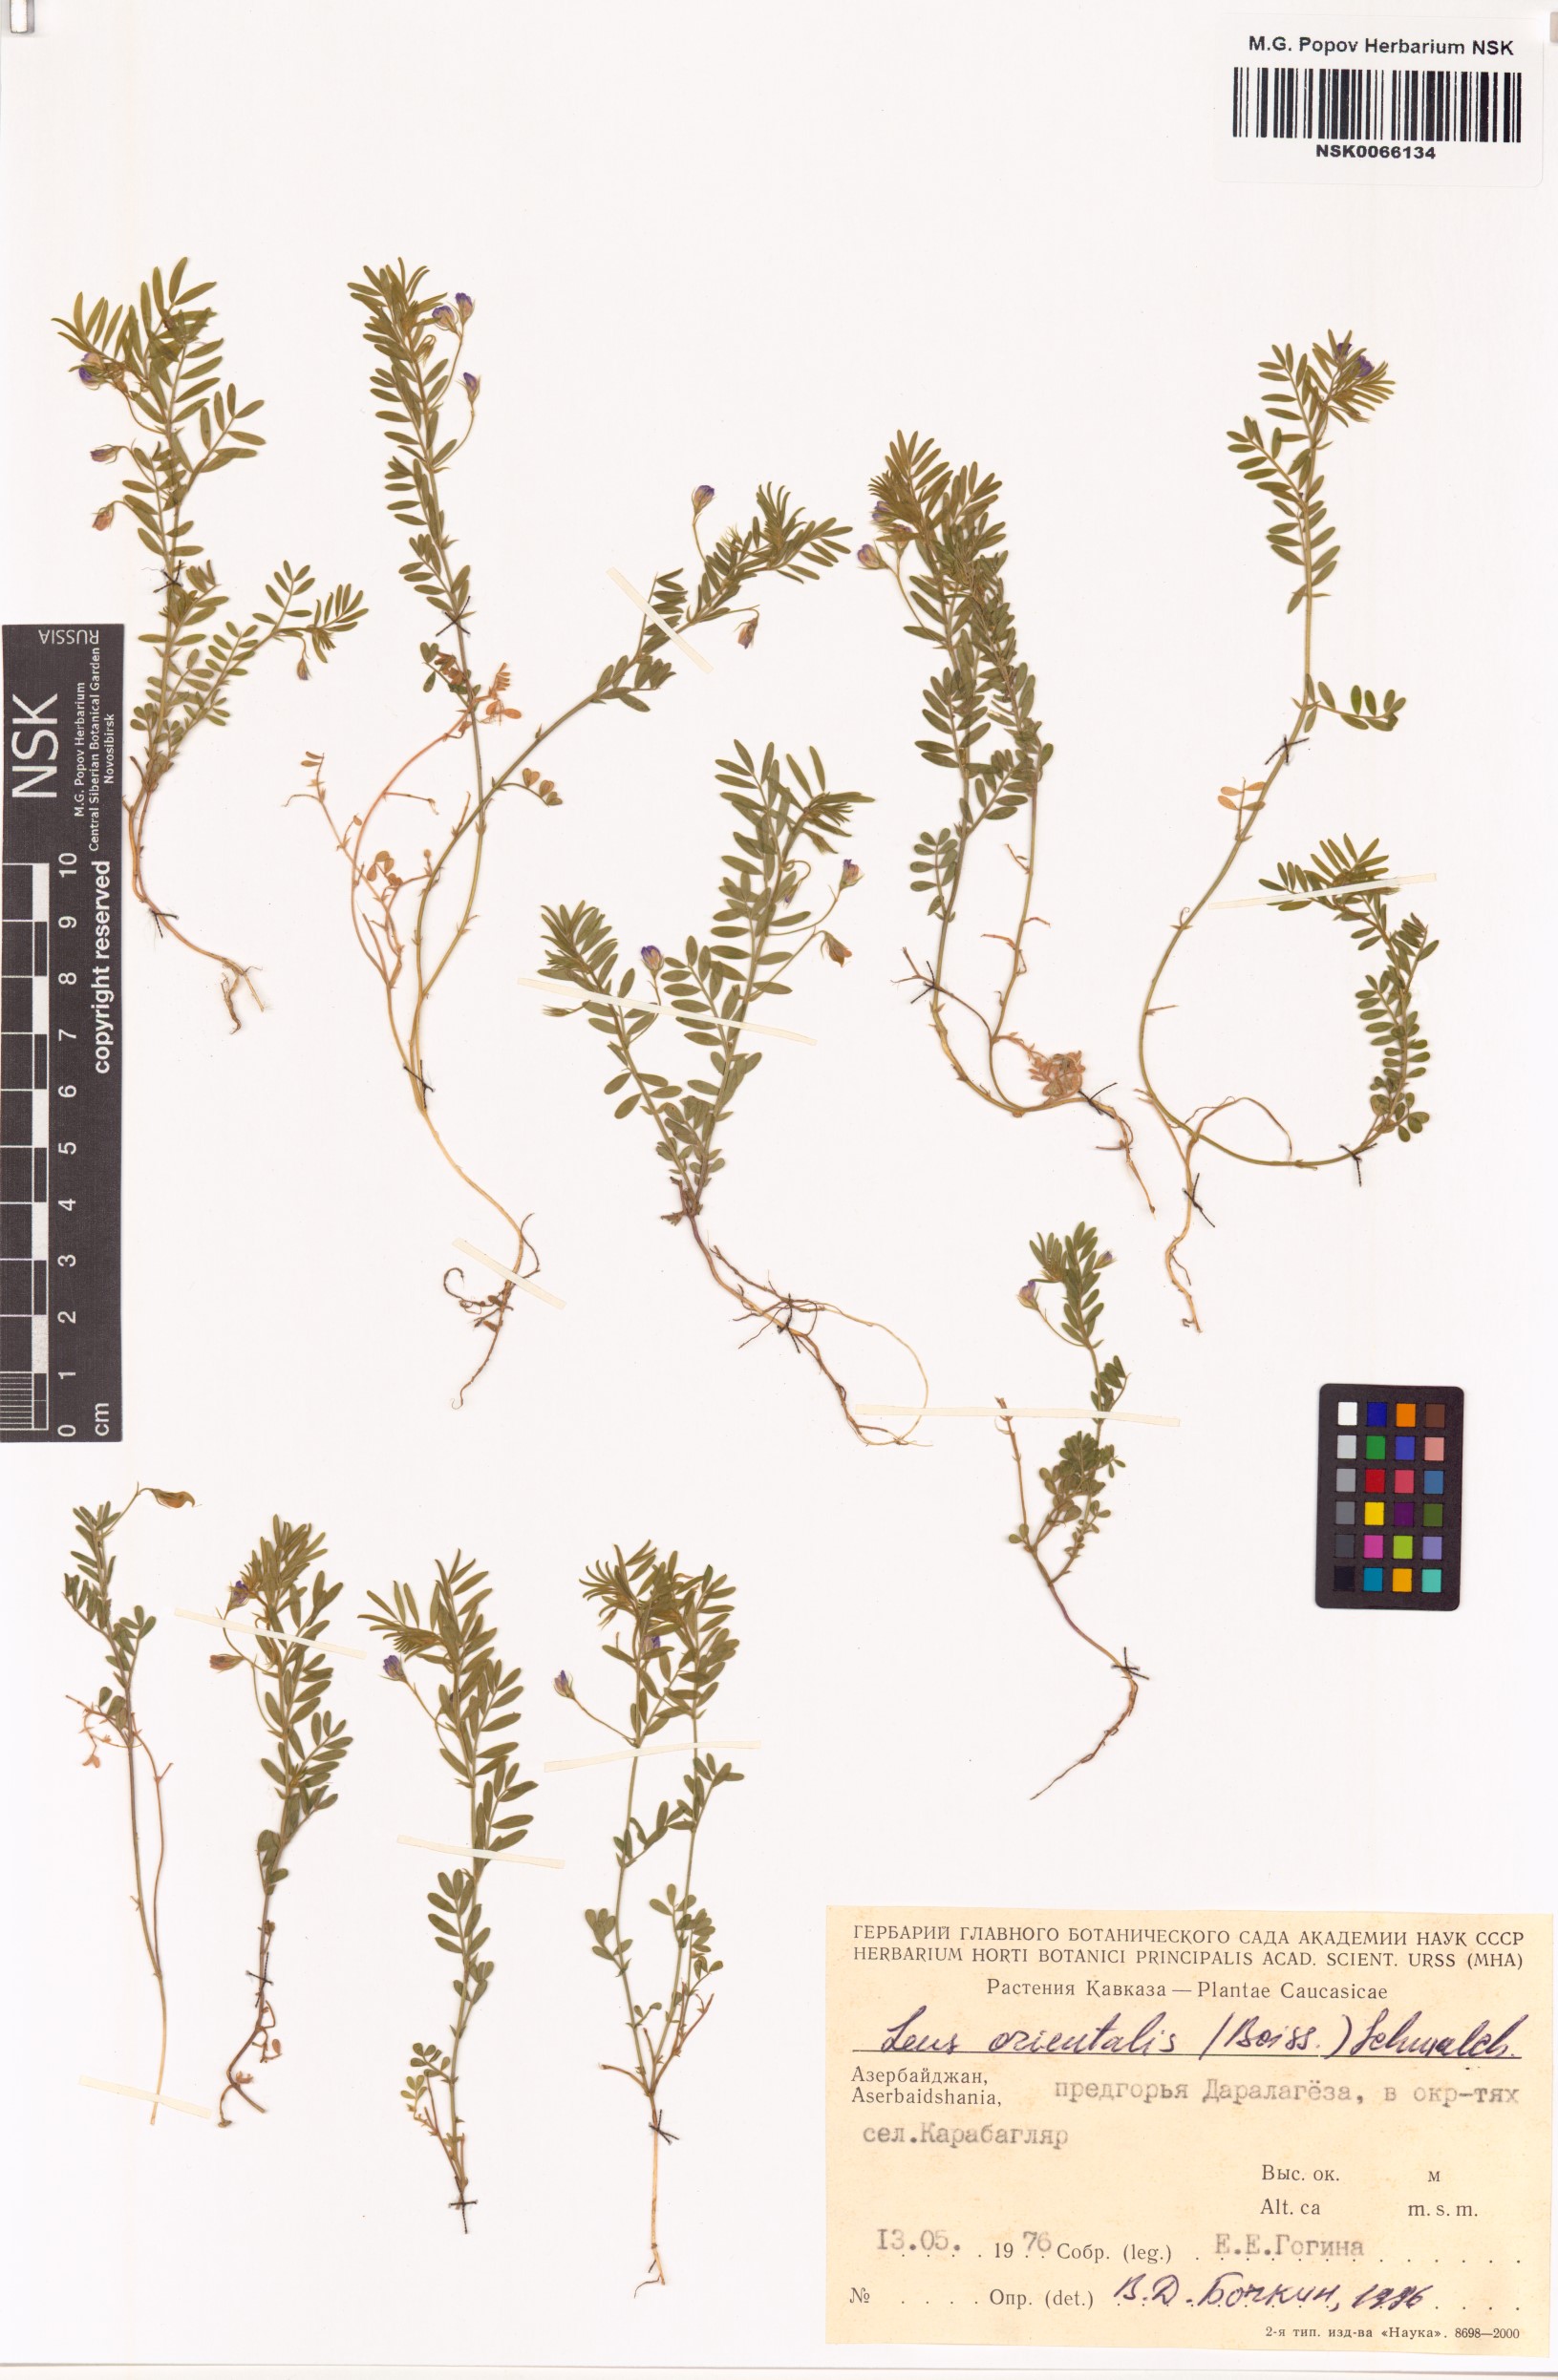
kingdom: Plantae
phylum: Tracheophyta
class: Magnoliopsida
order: Fabales
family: Fabaceae
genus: Vicia
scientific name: Vicia lens
